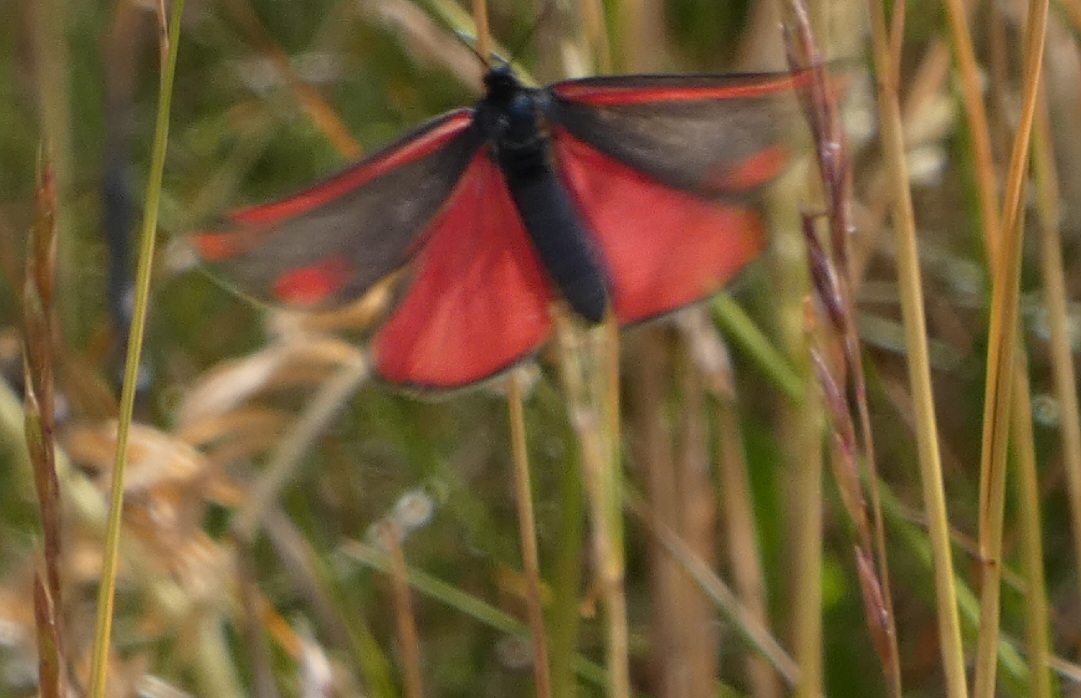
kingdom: Animalia
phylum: Arthropoda
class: Insecta
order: Lepidoptera
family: Erebidae
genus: Tyria
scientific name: Tyria jacobaeae
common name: Blodplet
